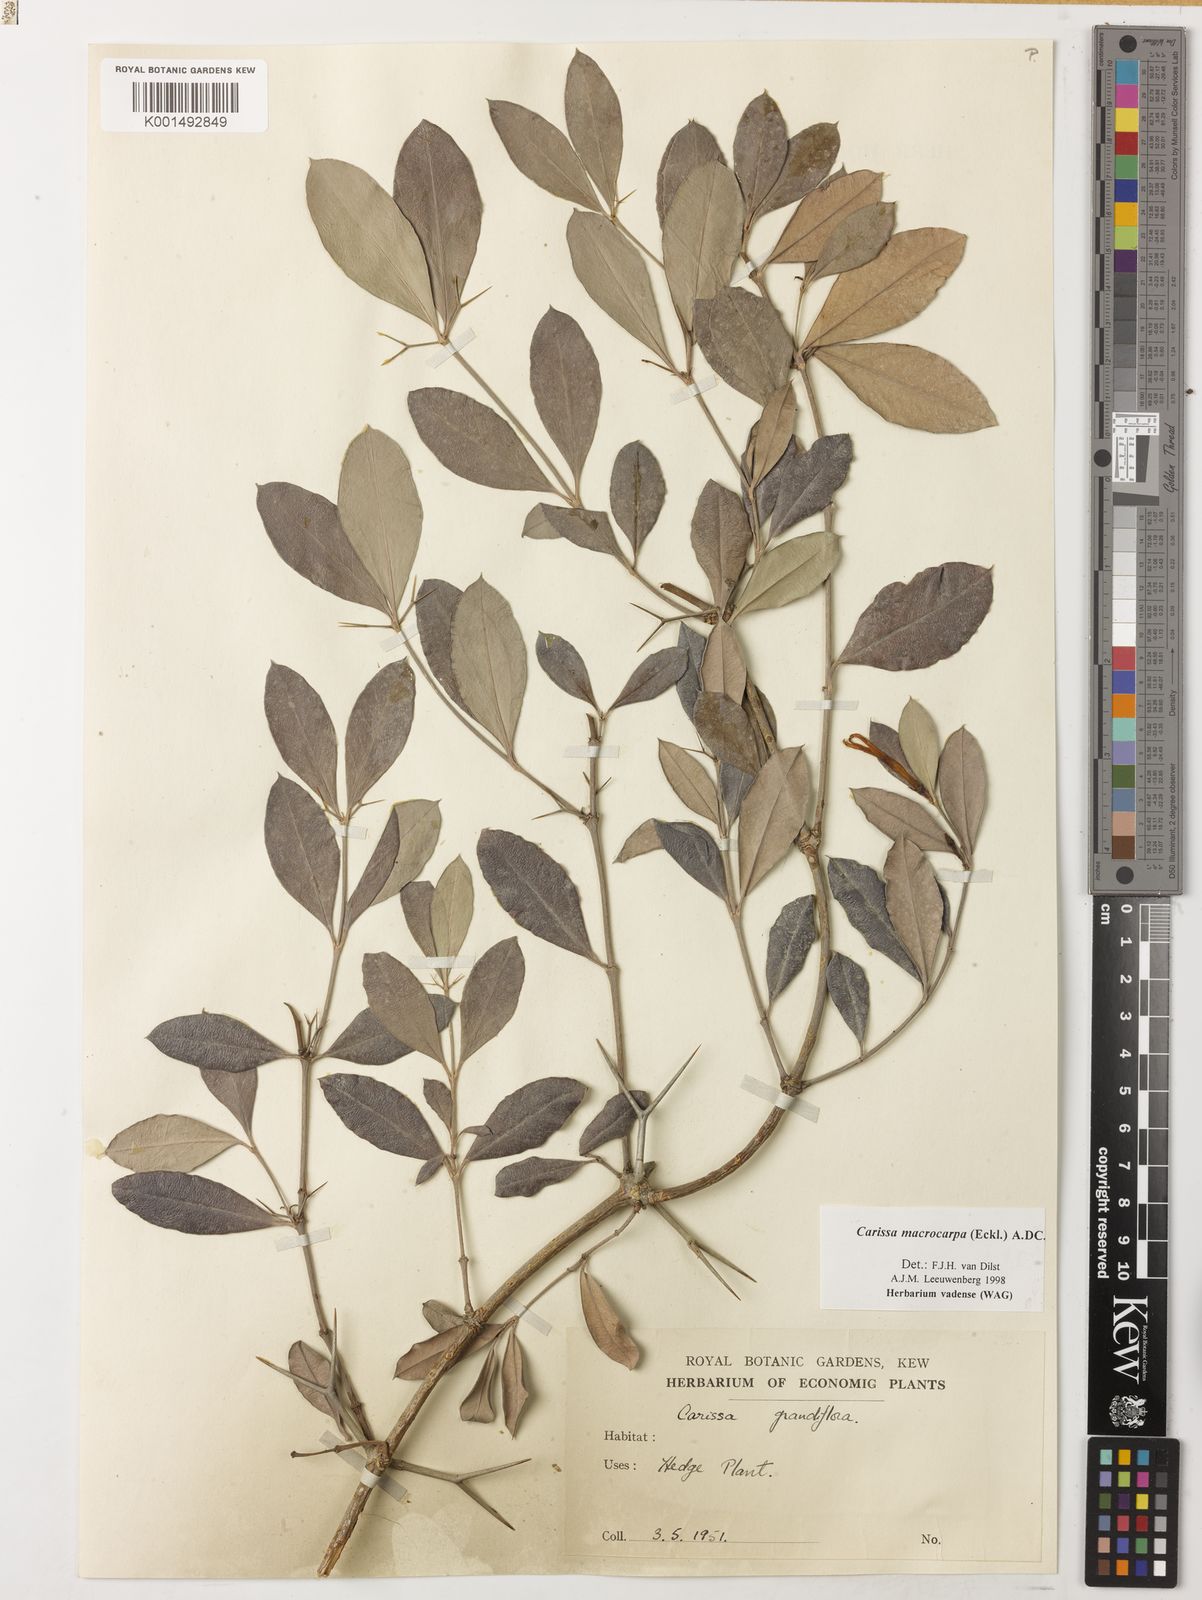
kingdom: Plantae
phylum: Tracheophyta
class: Magnoliopsida
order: Gentianales
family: Apocynaceae
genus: Carissa
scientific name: Carissa macrocarpa
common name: Natal plum
